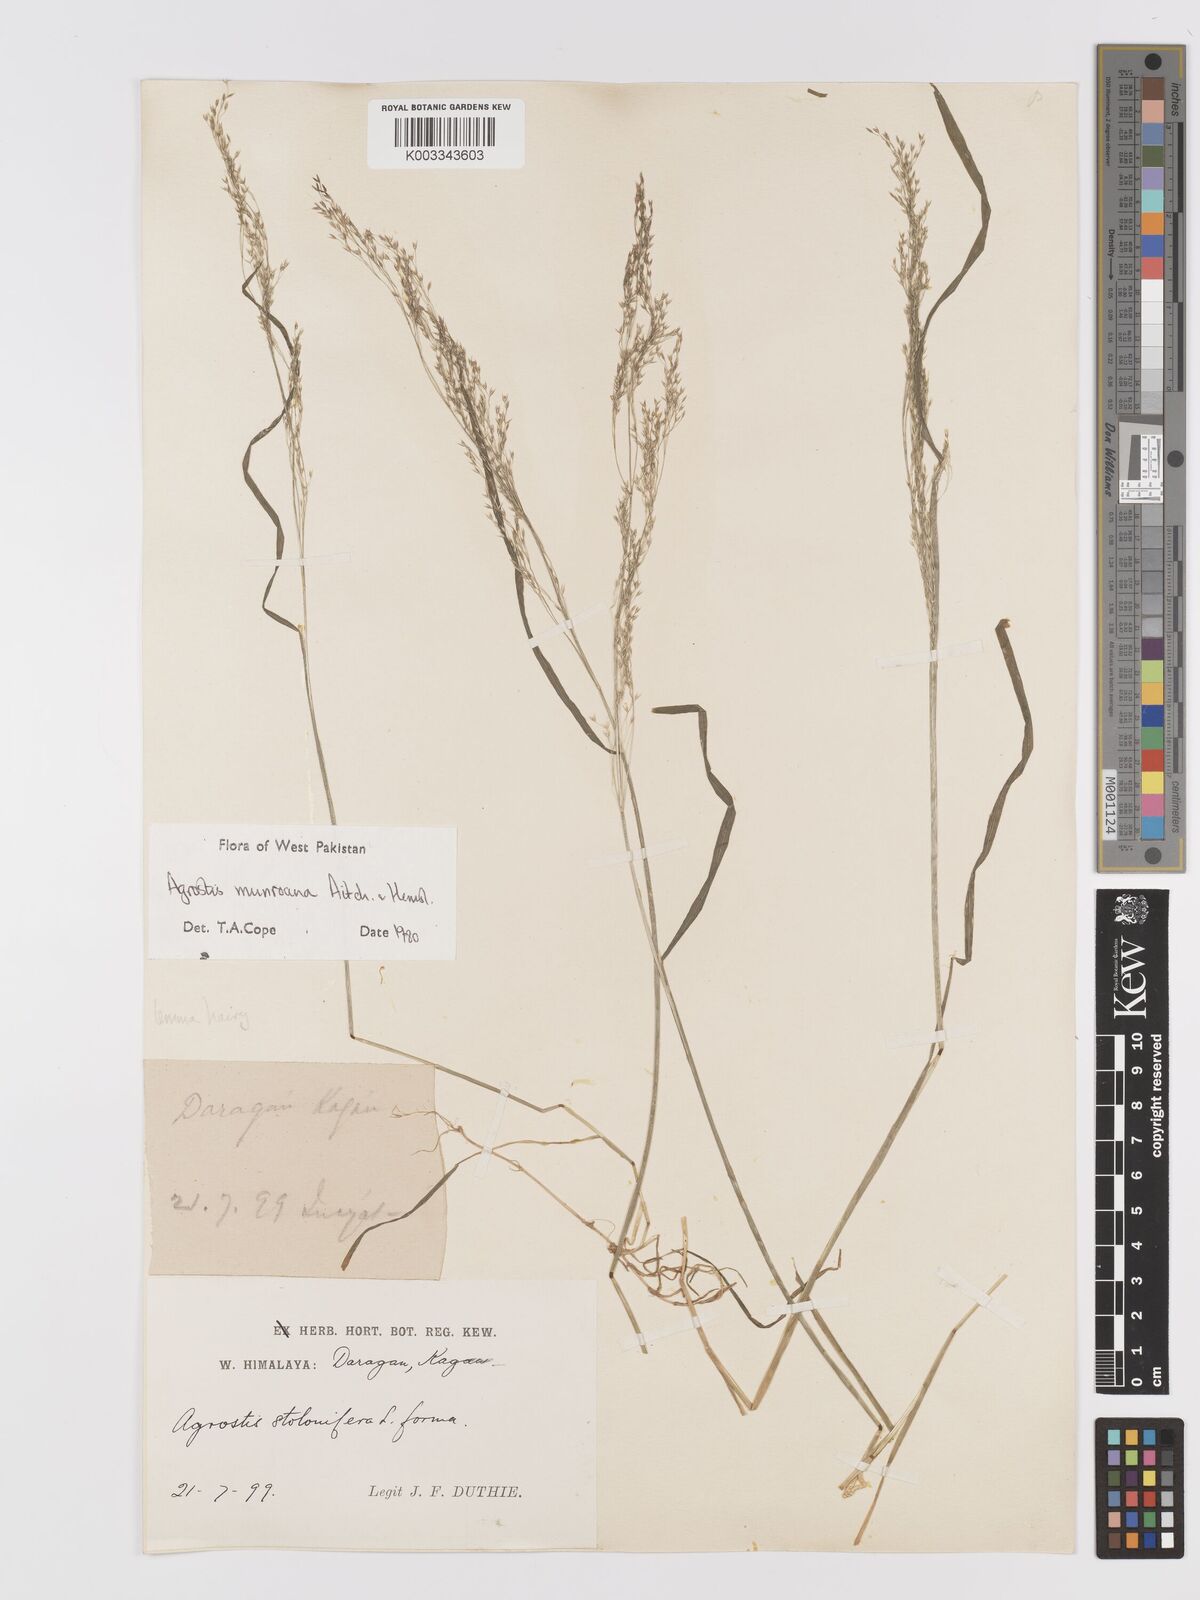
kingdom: Plantae
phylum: Tracheophyta
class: Liliopsida
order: Poales
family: Poaceae
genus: Agrostis
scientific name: Agrostis munroana
